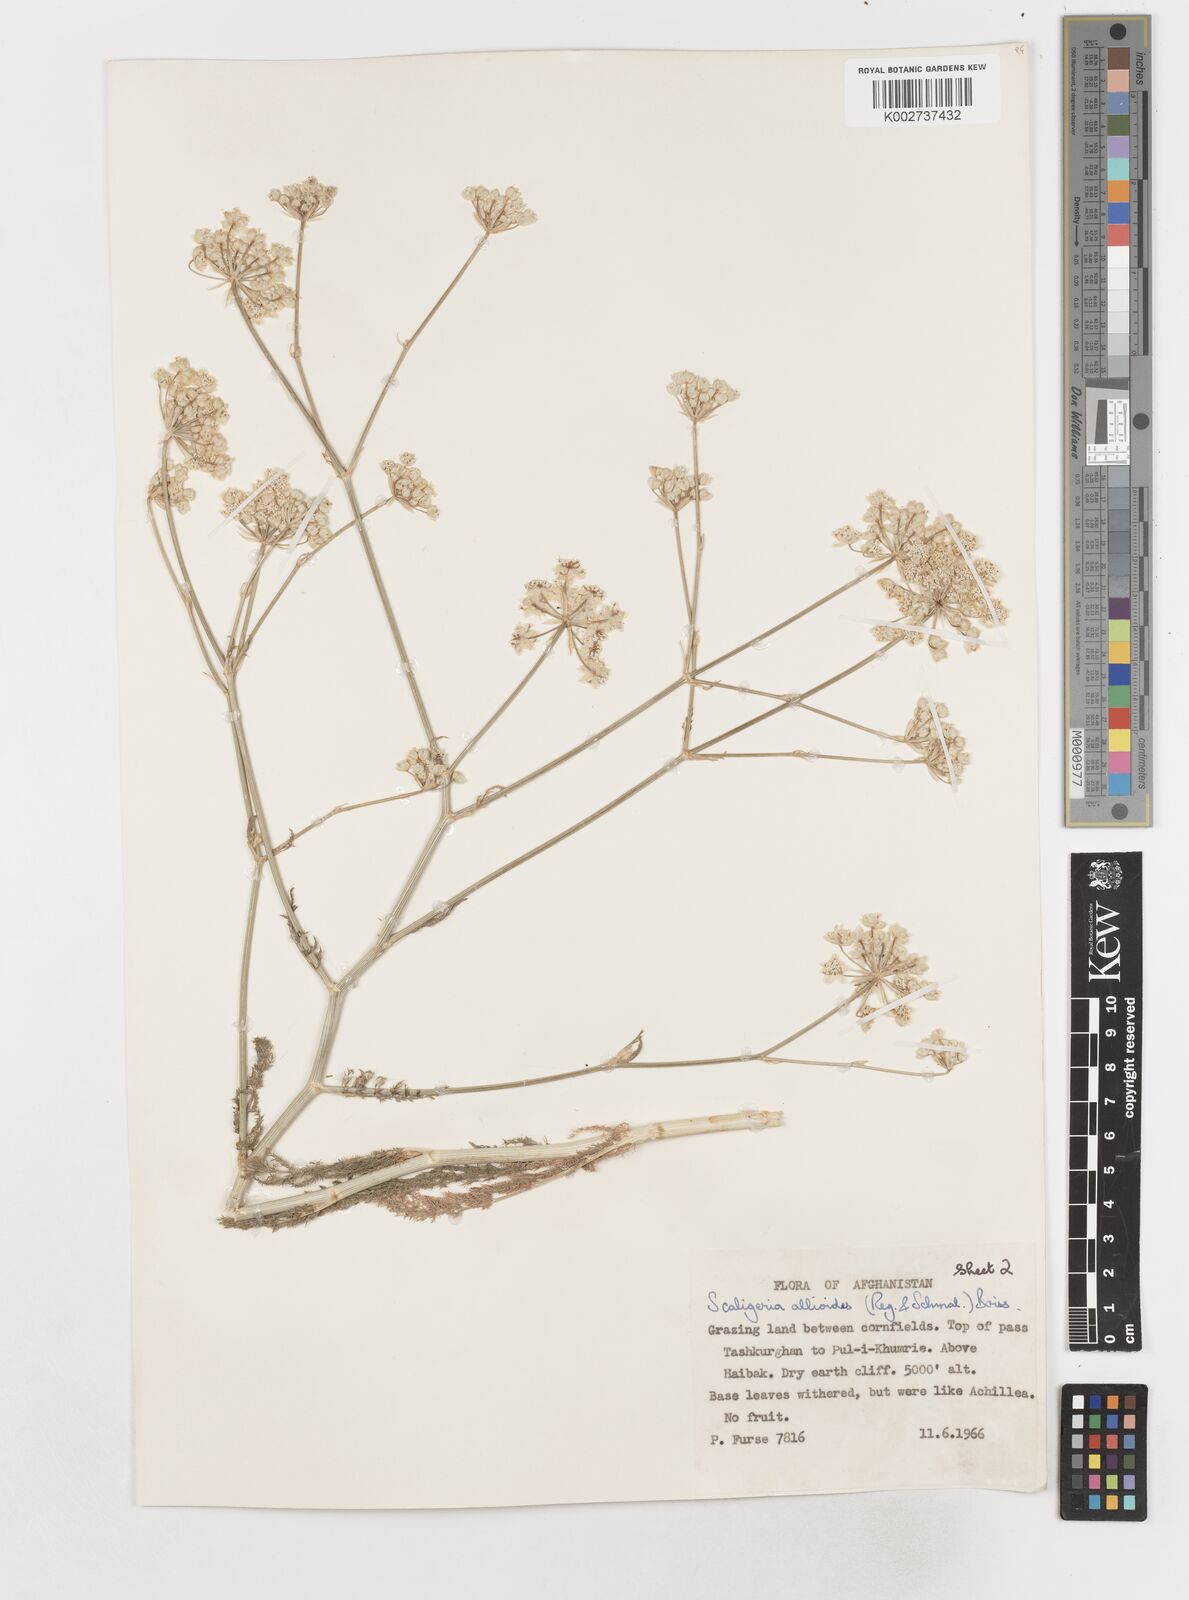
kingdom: Plantae
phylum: Tracheophyta
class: Magnoliopsida
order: Apiales
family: Apiaceae
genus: Scaligeria
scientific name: Scaligeria allioides
